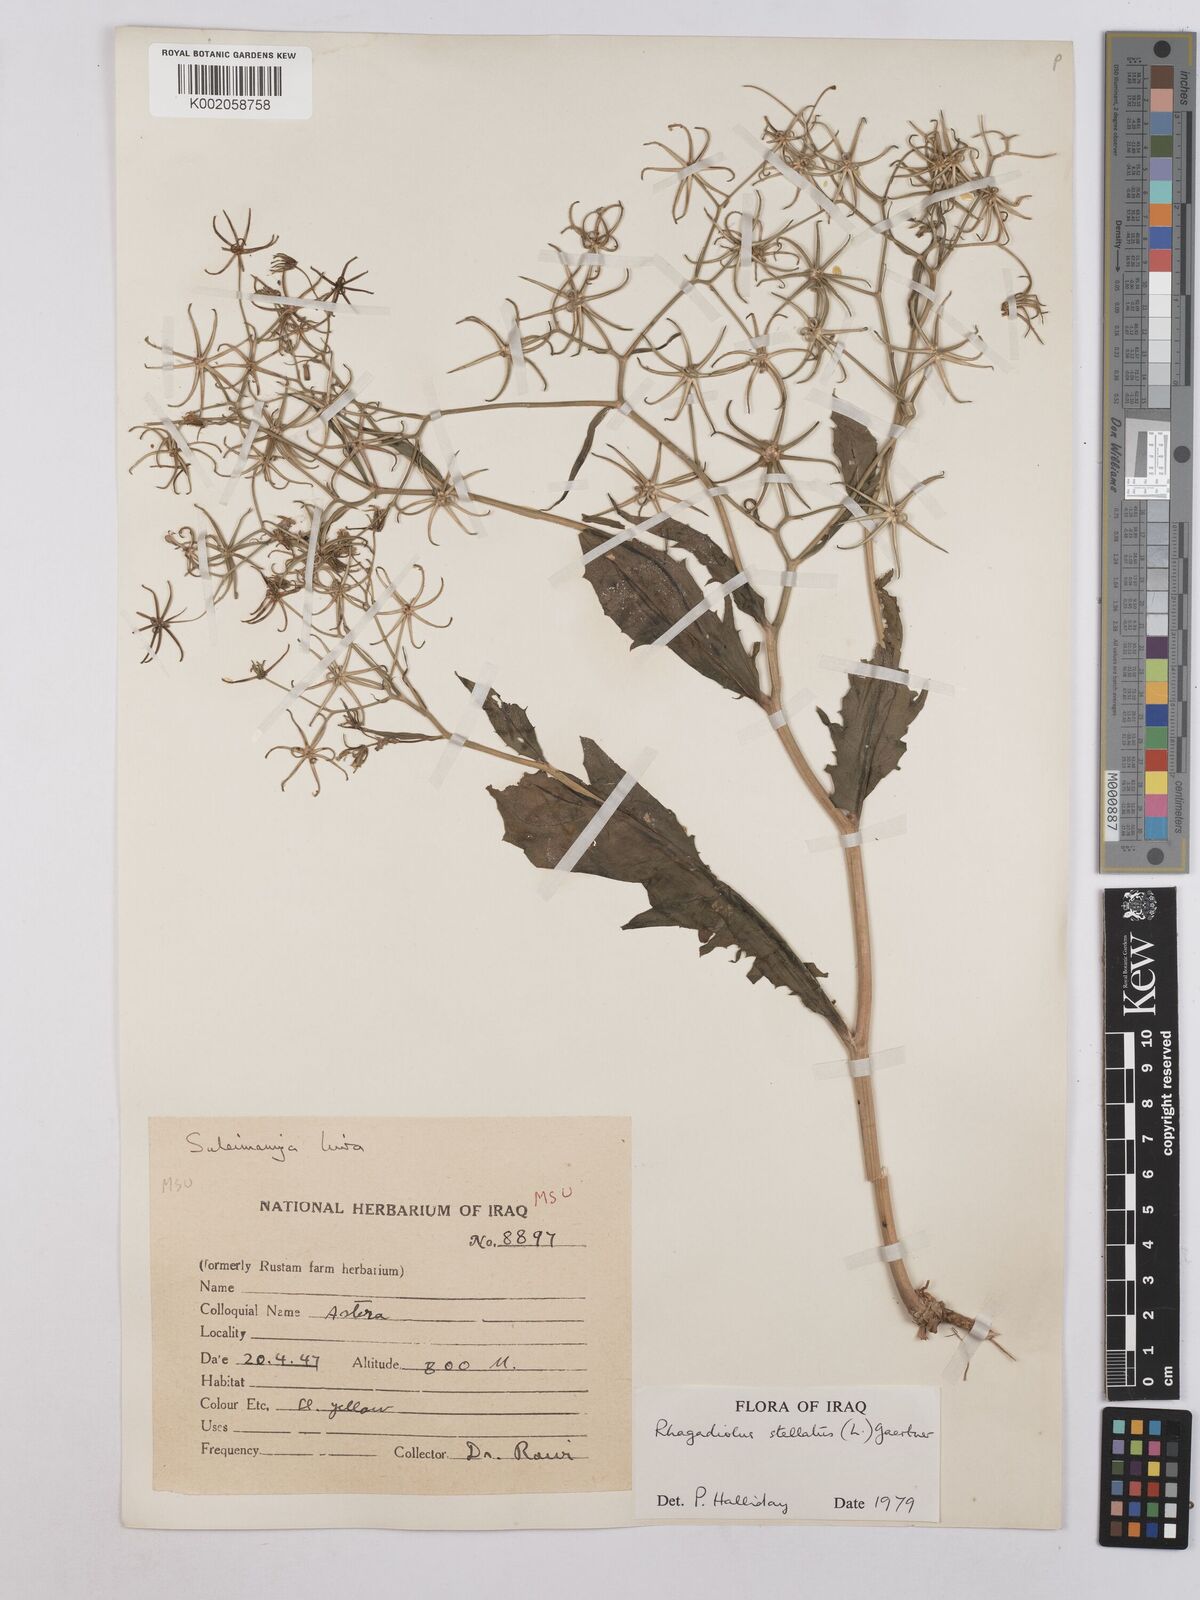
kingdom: Plantae
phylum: Tracheophyta
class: Magnoliopsida
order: Asterales
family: Asteraceae
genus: Rhagadiolus
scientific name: Rhagadiolus stellatus
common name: Star hawkbit
